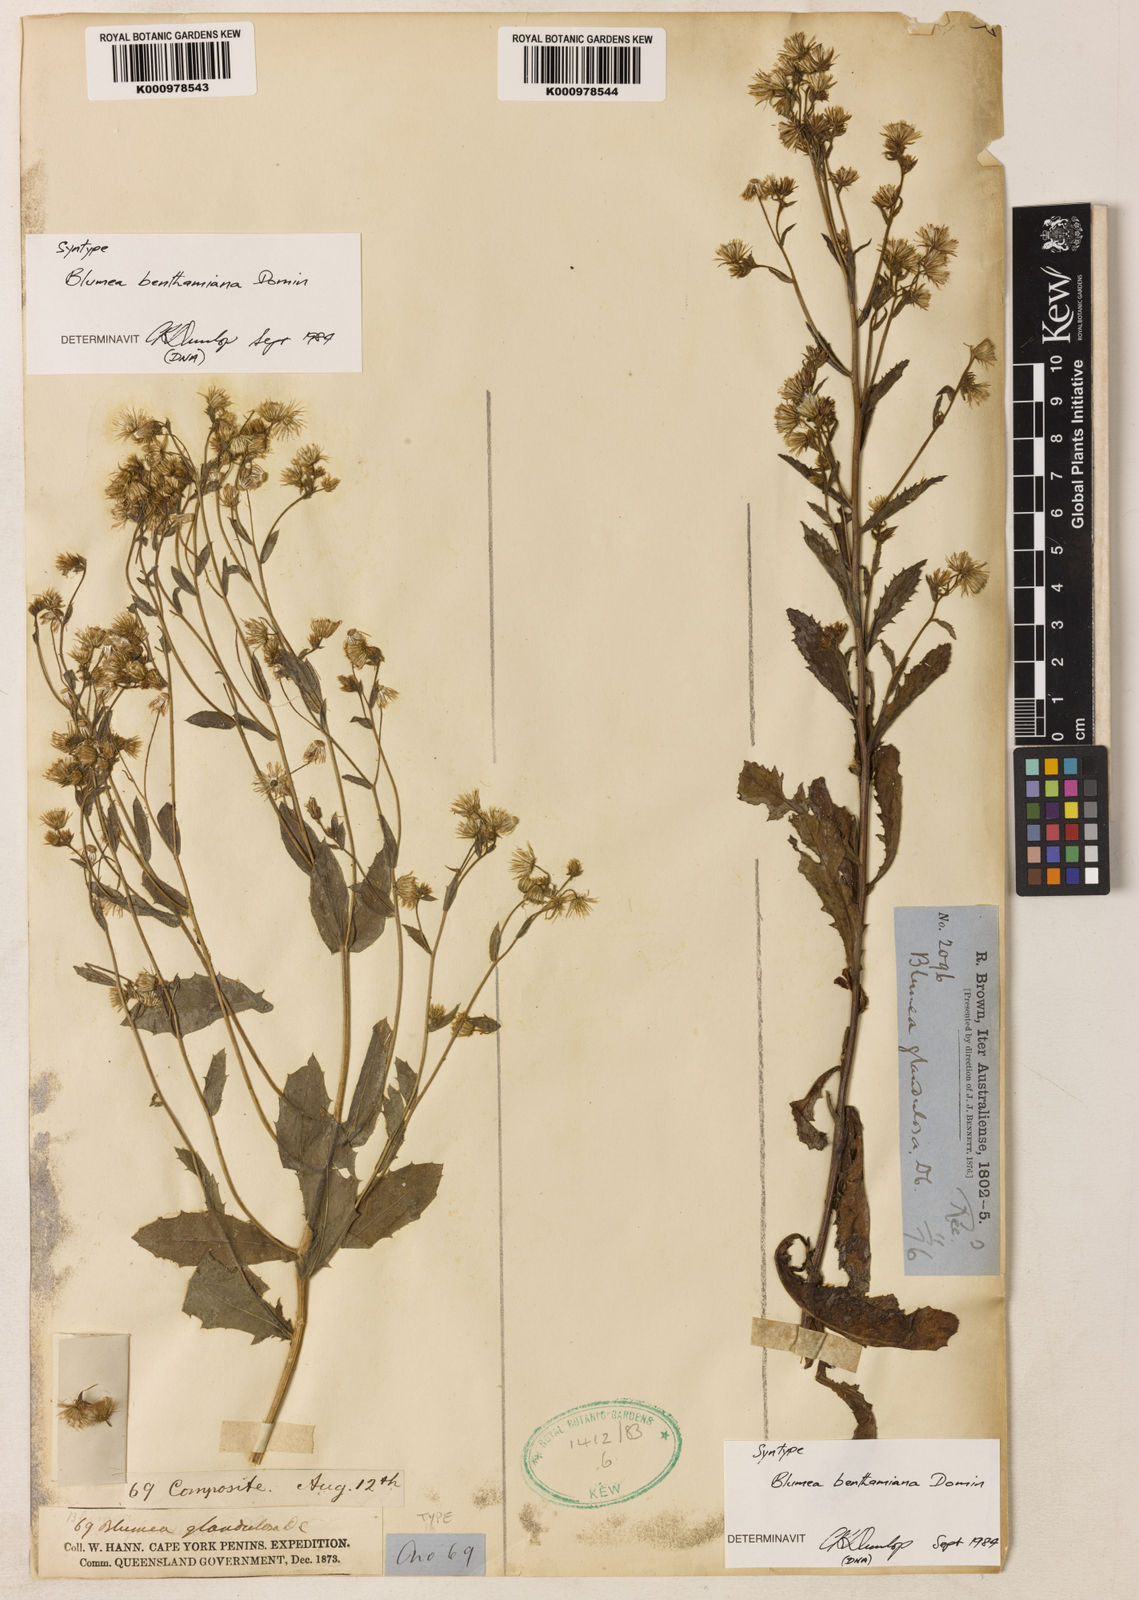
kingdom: Plantae
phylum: Tracheophyta
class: Magnoliopsida
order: Asterales
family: Asteraceae
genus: Blumea
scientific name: Blumea benthamiana
